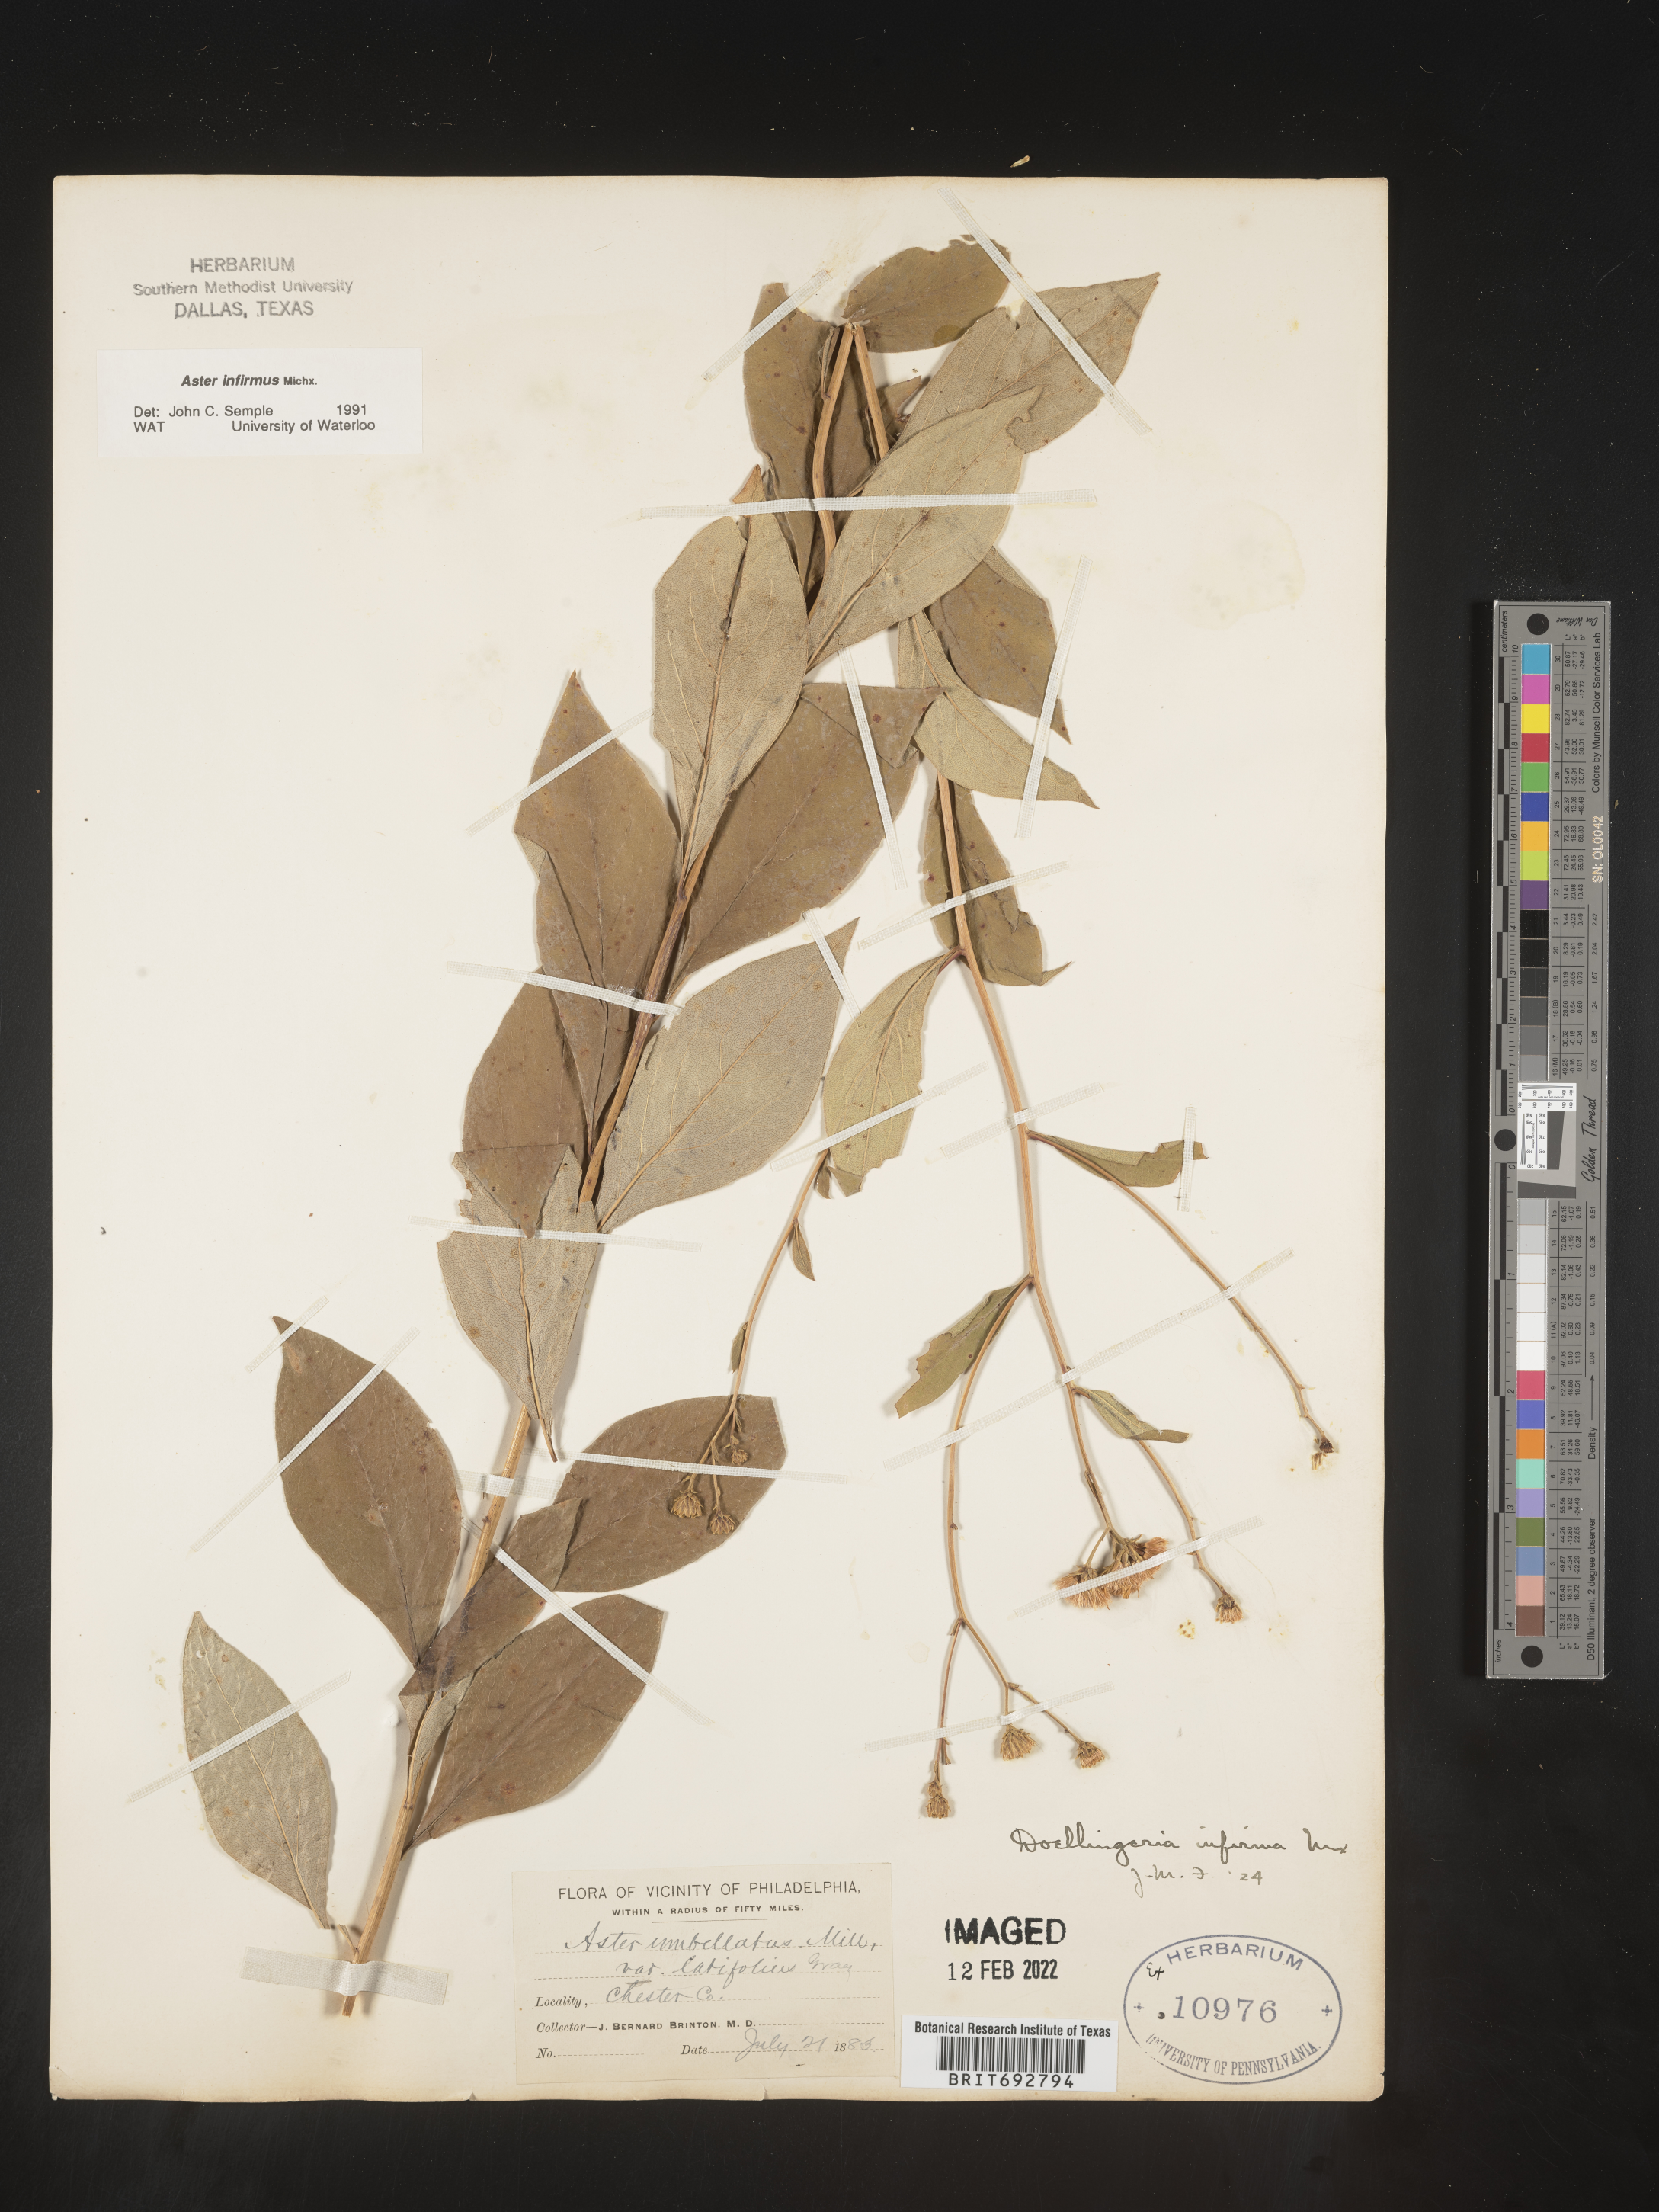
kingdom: Plantae
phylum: Tracheophyta
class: Magnoliopsida
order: Asterales
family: Asteraceae
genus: Doellingeria
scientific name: Doellingeria infirma
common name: Appalachian flat-top aster
